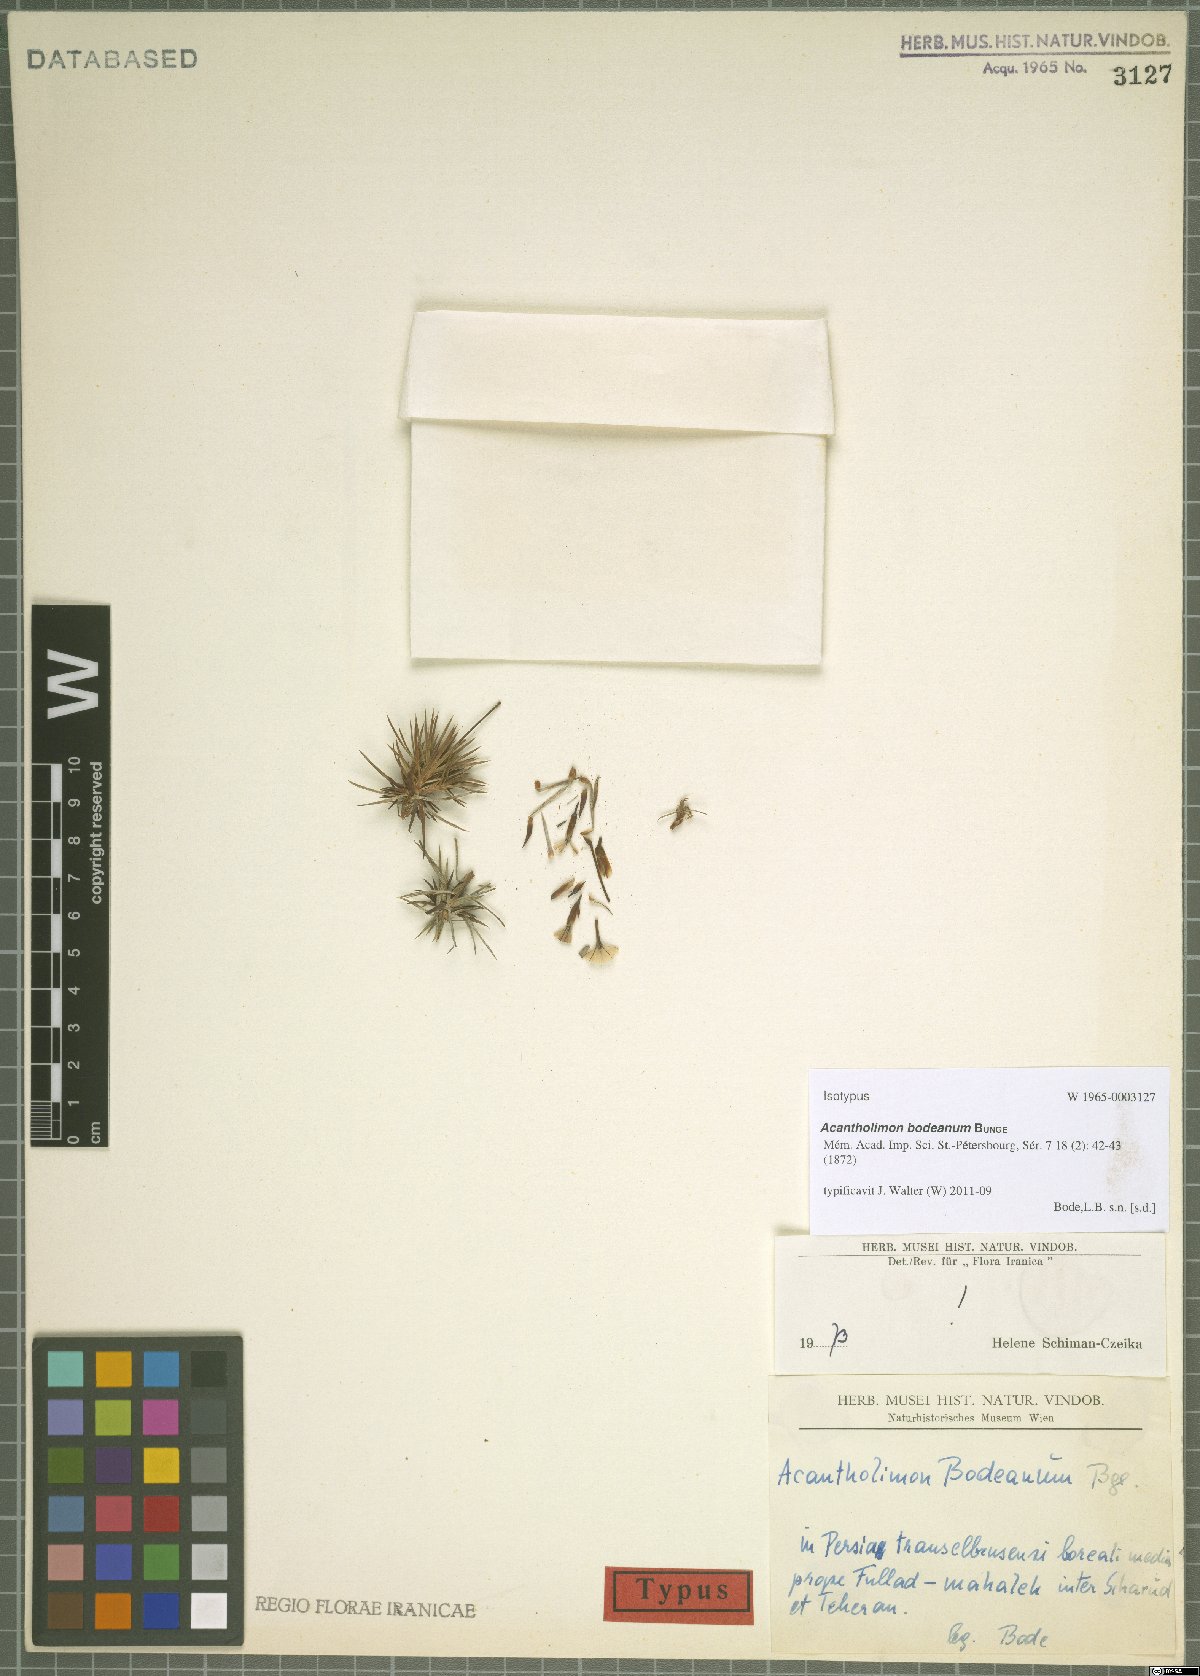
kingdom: Plantae
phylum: Tracheophyta
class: Magnoliopsida
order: Caryophyllales
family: Plumbaginaceae
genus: Acantholimon
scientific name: Acantholimon bodeanum
